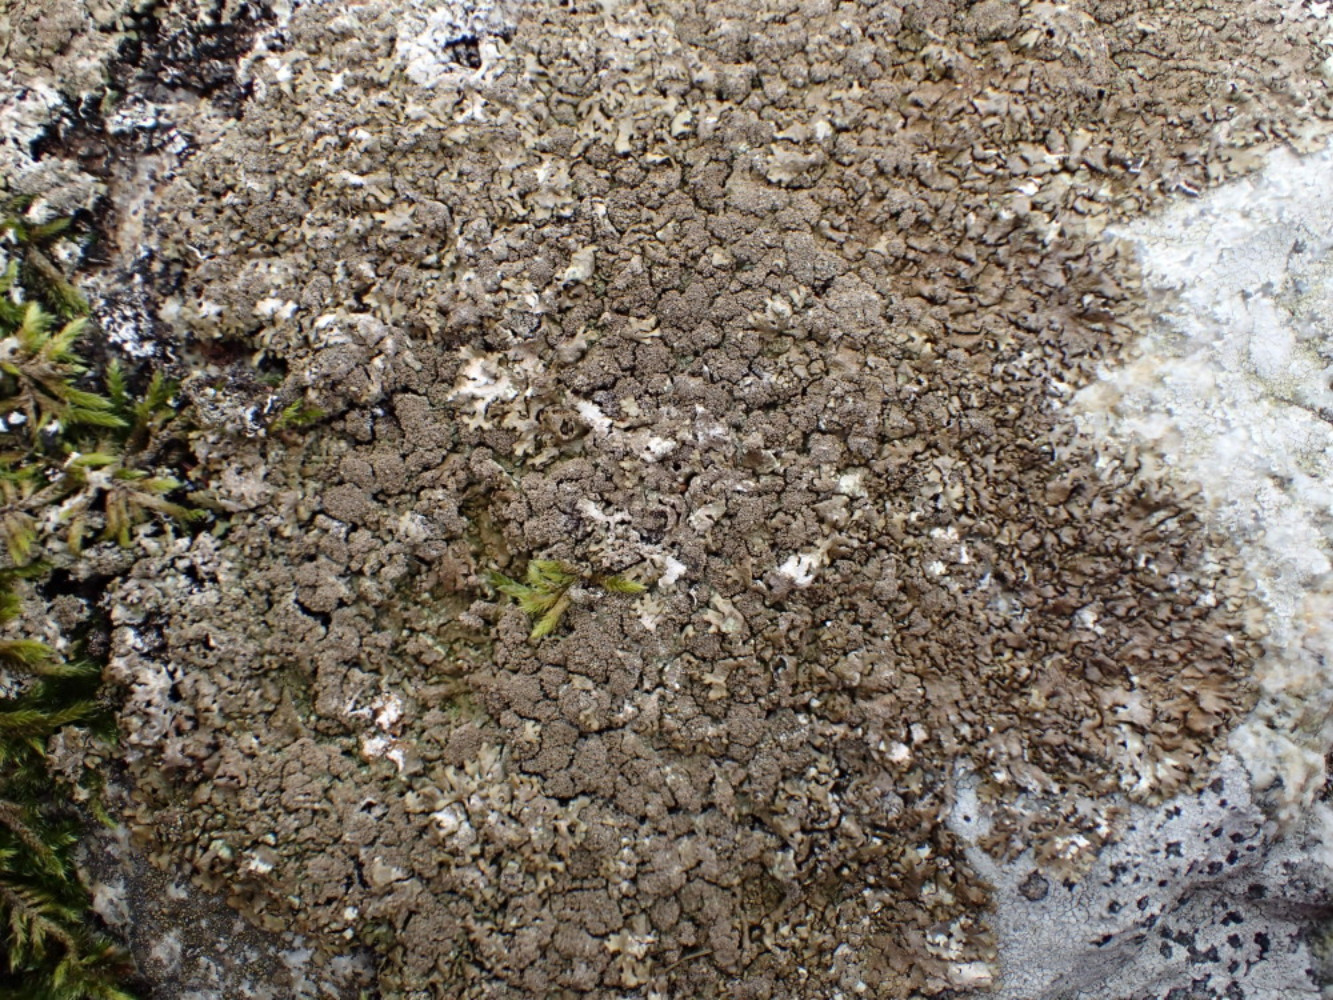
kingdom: Fungi
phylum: Ascomycota
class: Lecanoromycetes
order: Lecanorales
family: Parmeliaceae
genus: Xanthoparmelia
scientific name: Xanthoparmelia loxodes
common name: knudret skållav
